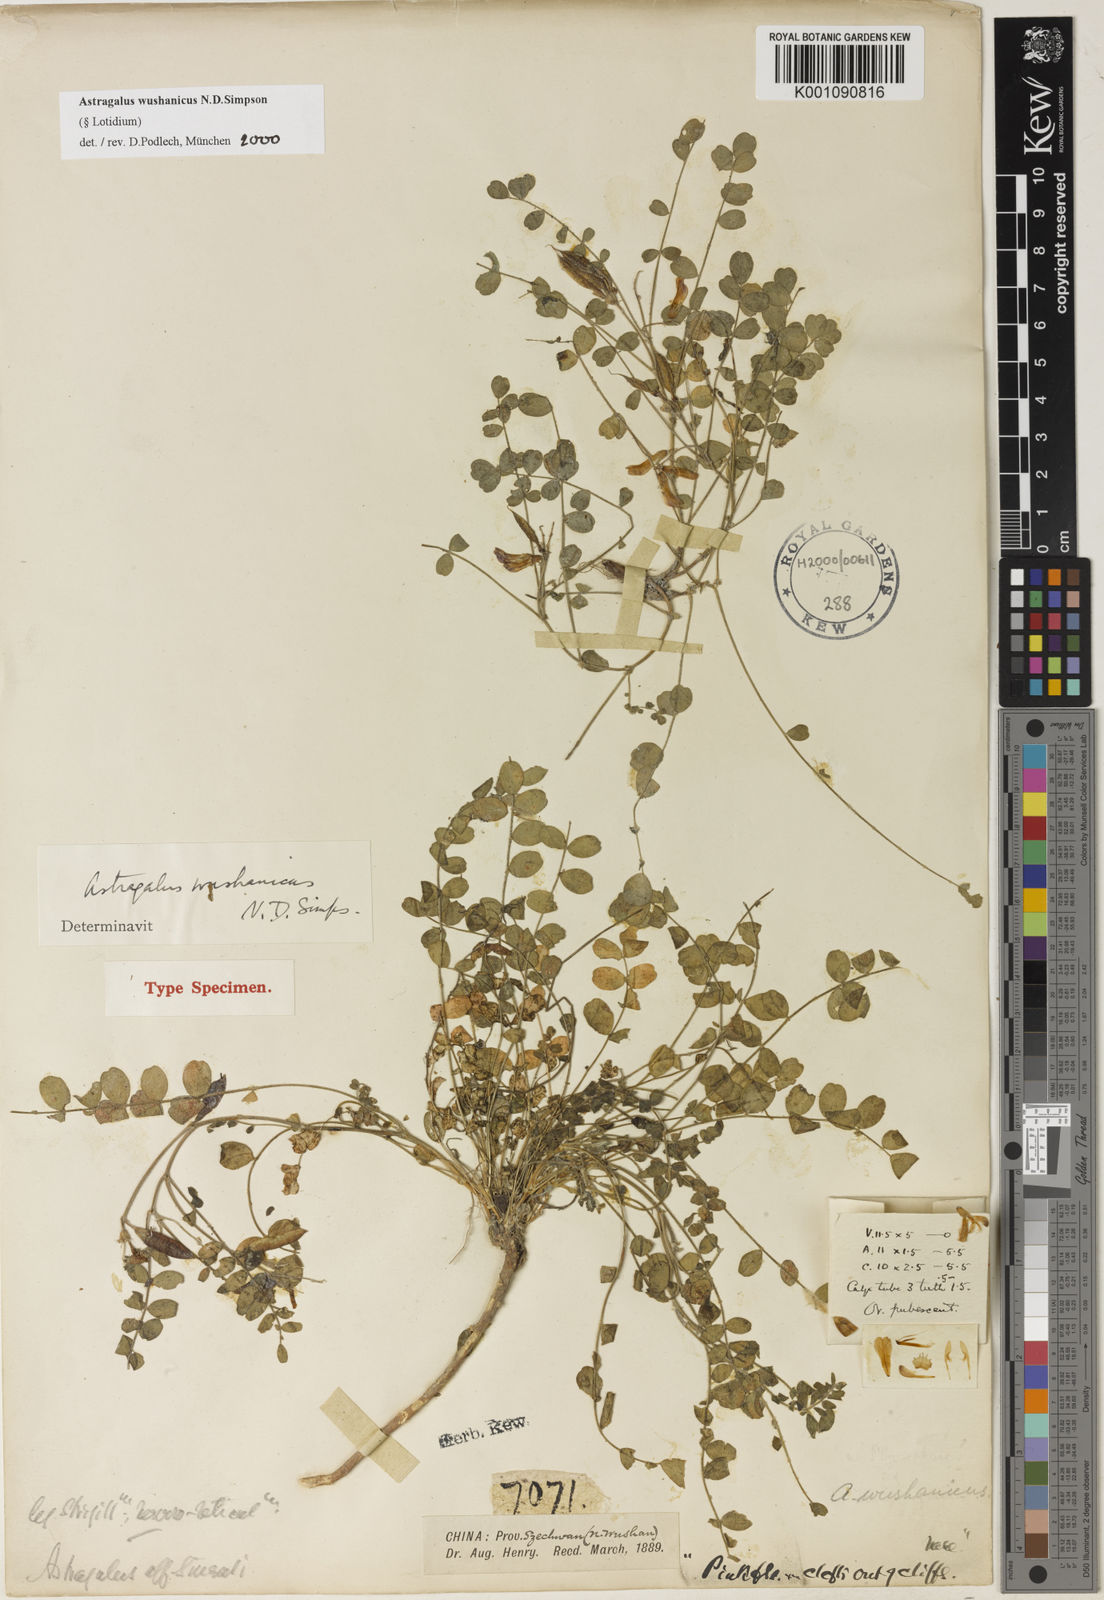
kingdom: Plantae
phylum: Tracheophyta
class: Magnoliopsida
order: Fabales
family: Fabaceae
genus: Astragalus
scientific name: Astragalus
